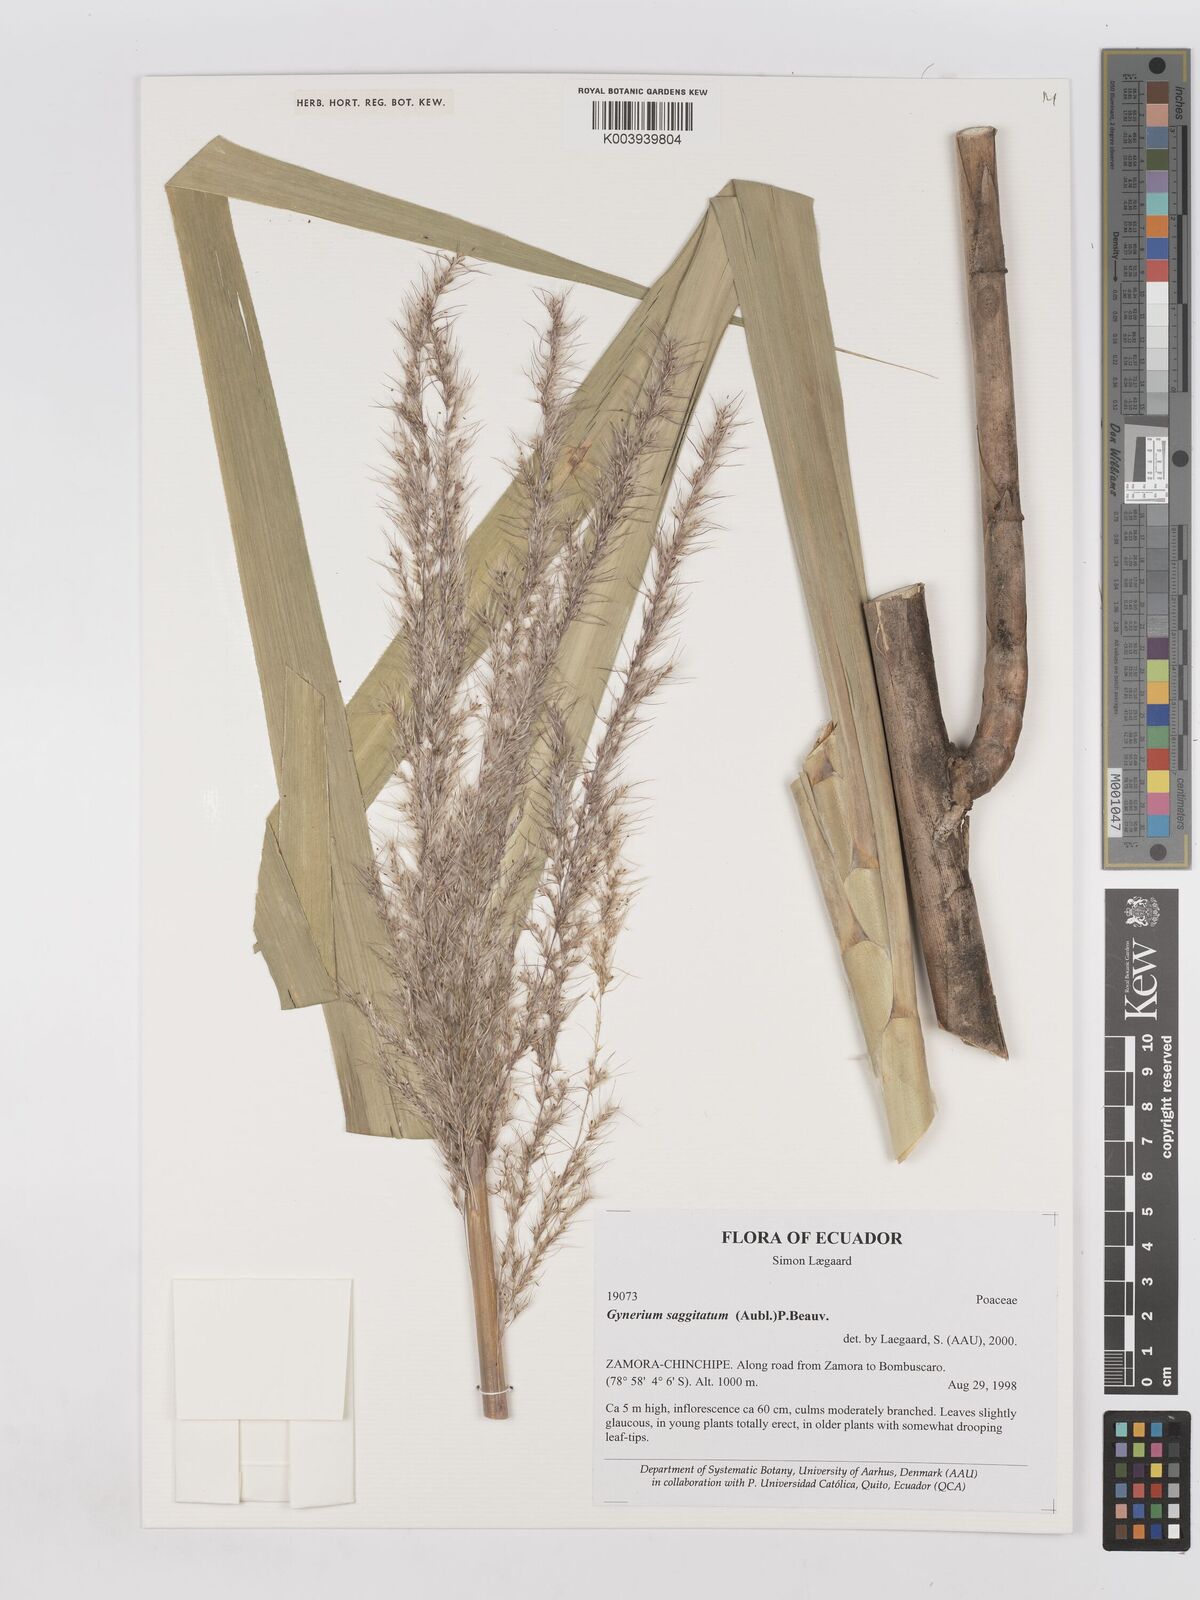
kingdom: Plantae
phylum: Tracheophyta
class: Liliopsida
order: Poales
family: Poaceae
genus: Gynerium
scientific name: Gynerium sagittatum
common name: Wild cane
